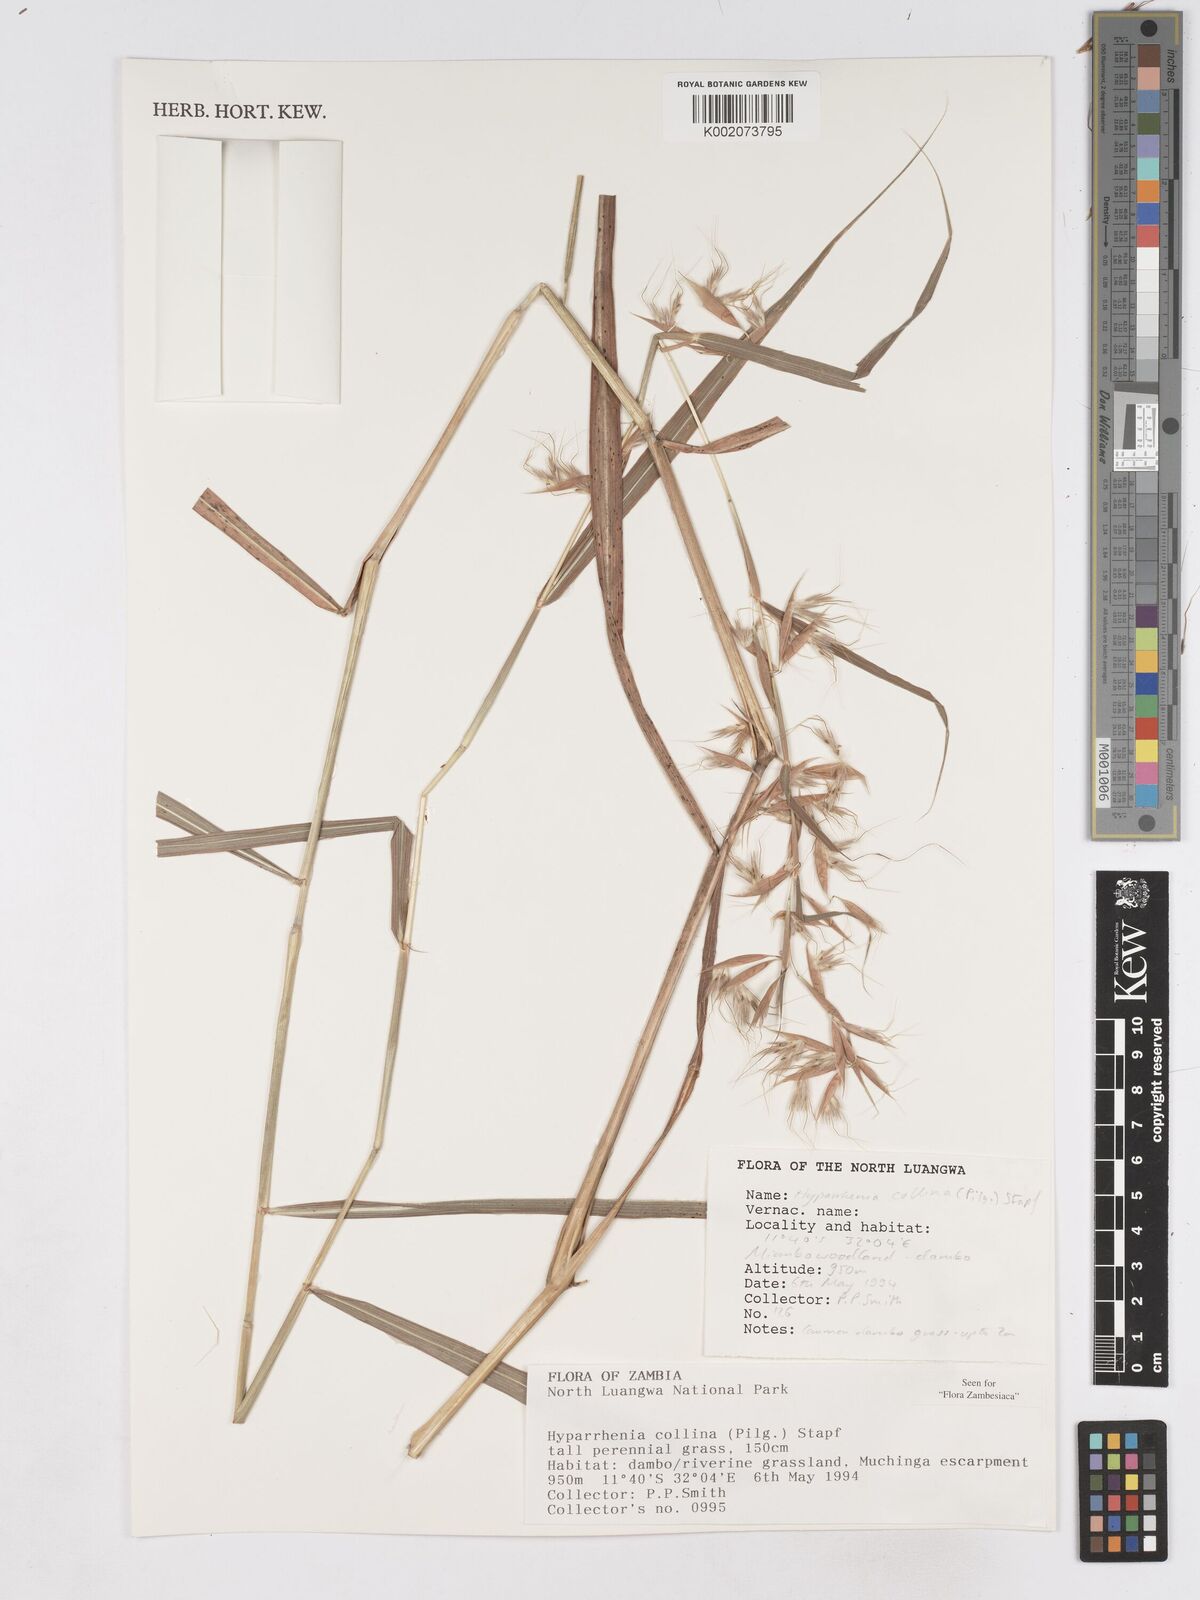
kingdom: Plantae
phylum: Tracheophyta
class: Liliopsida
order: Poales
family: Poaceae
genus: Hyparrhenia
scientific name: Hyparrhenia collina
